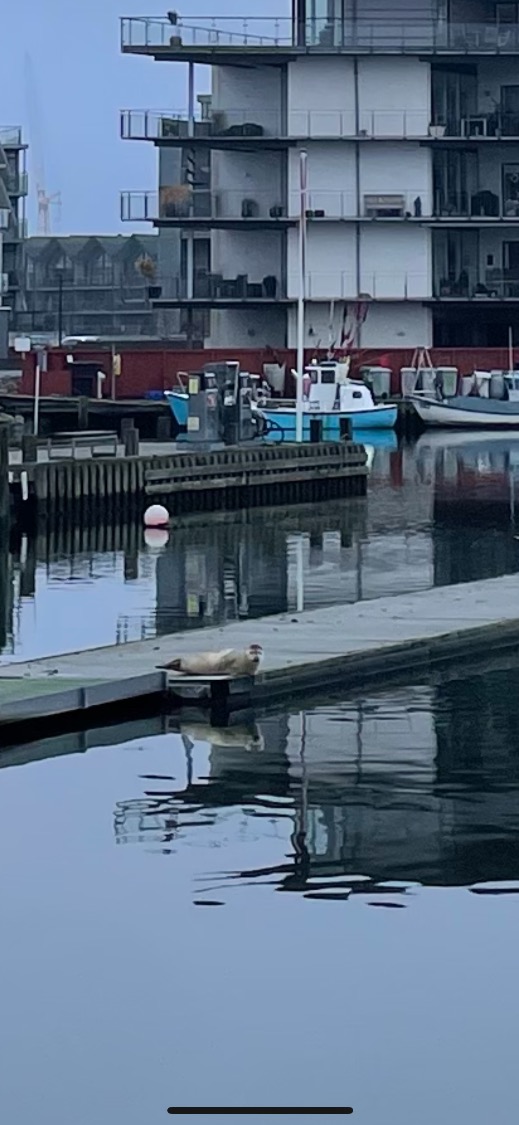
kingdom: Animalia
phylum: Chordata
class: Mammalia
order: Carnivora
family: Phocidae
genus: Phoca
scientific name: Phoca vitulina
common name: Spættet sæl
